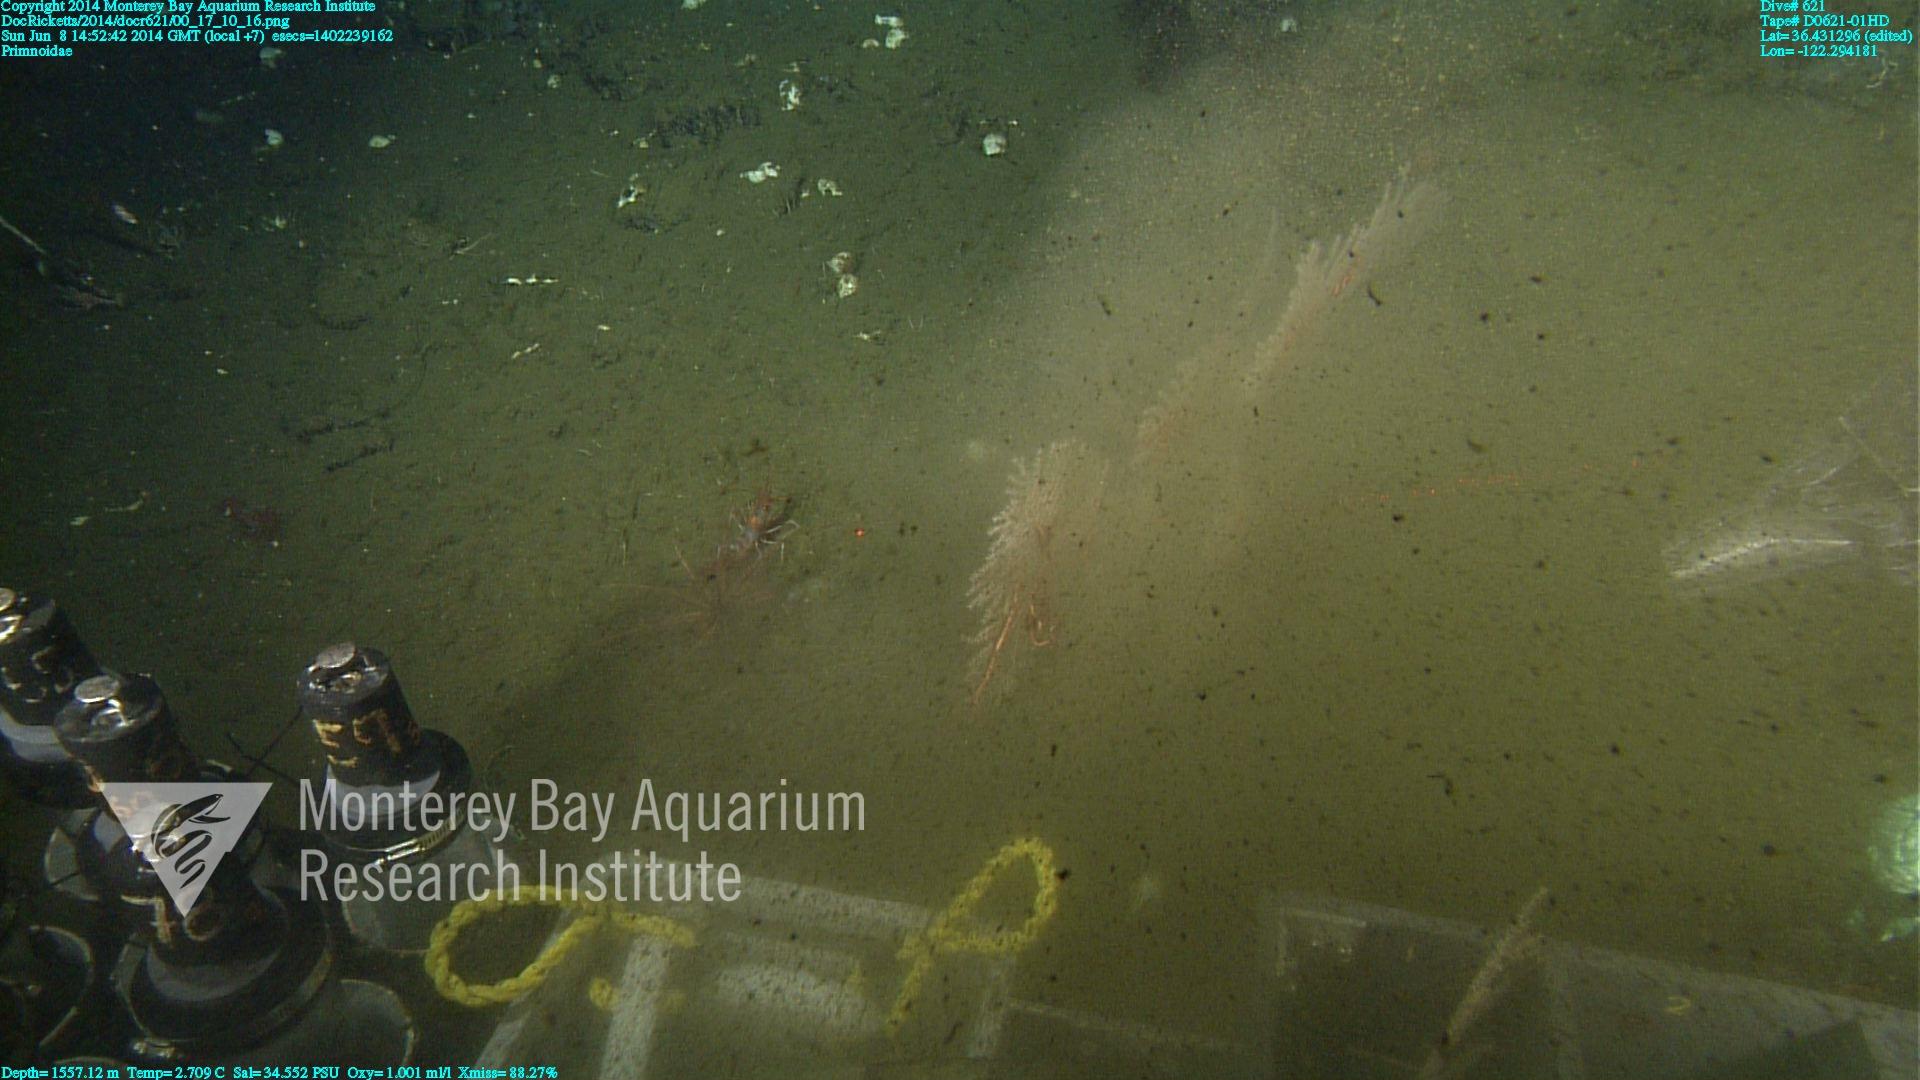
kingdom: Animalia
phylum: Cnidaria
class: Anthozoa
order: Scleralcyonacea
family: Primnoidae
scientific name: Primnoidae
